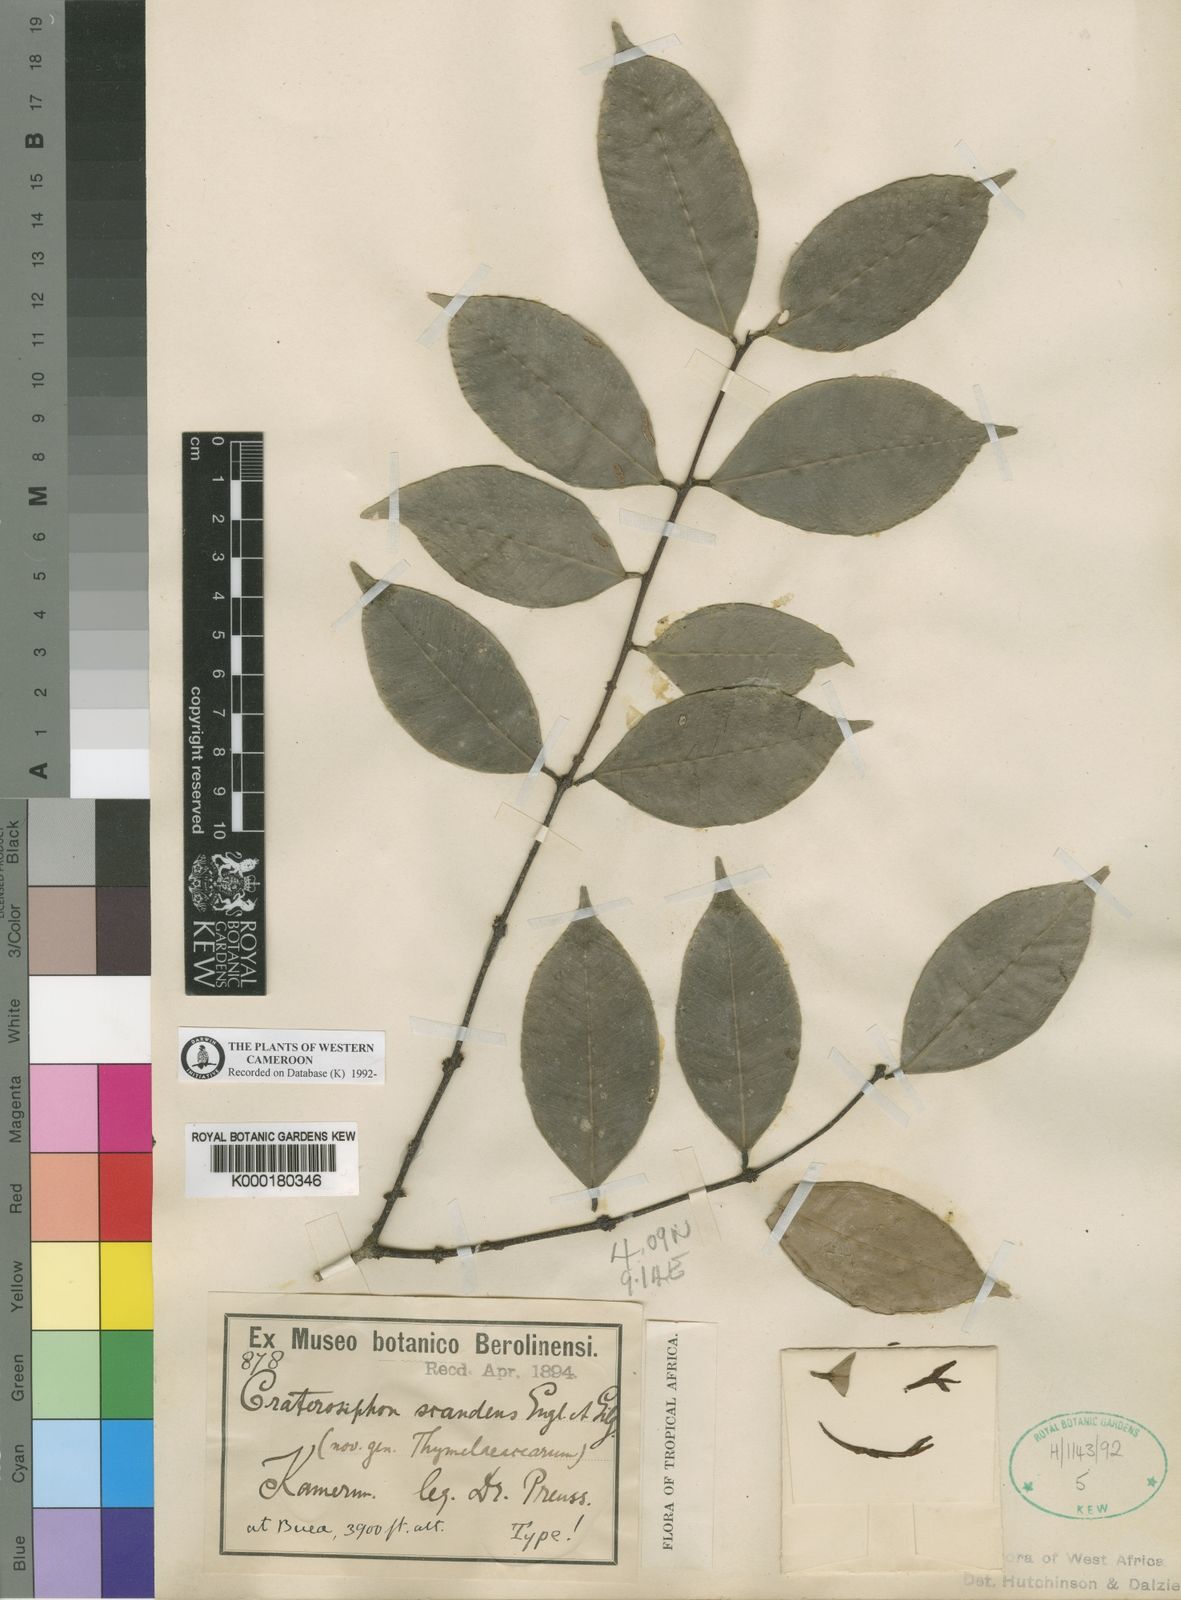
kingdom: Plantae
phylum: Tracheophyta
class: Magnoliopsida
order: Malvales
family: Thymelaeaceae
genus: Craterosiphon
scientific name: Craterosiphon scandens
